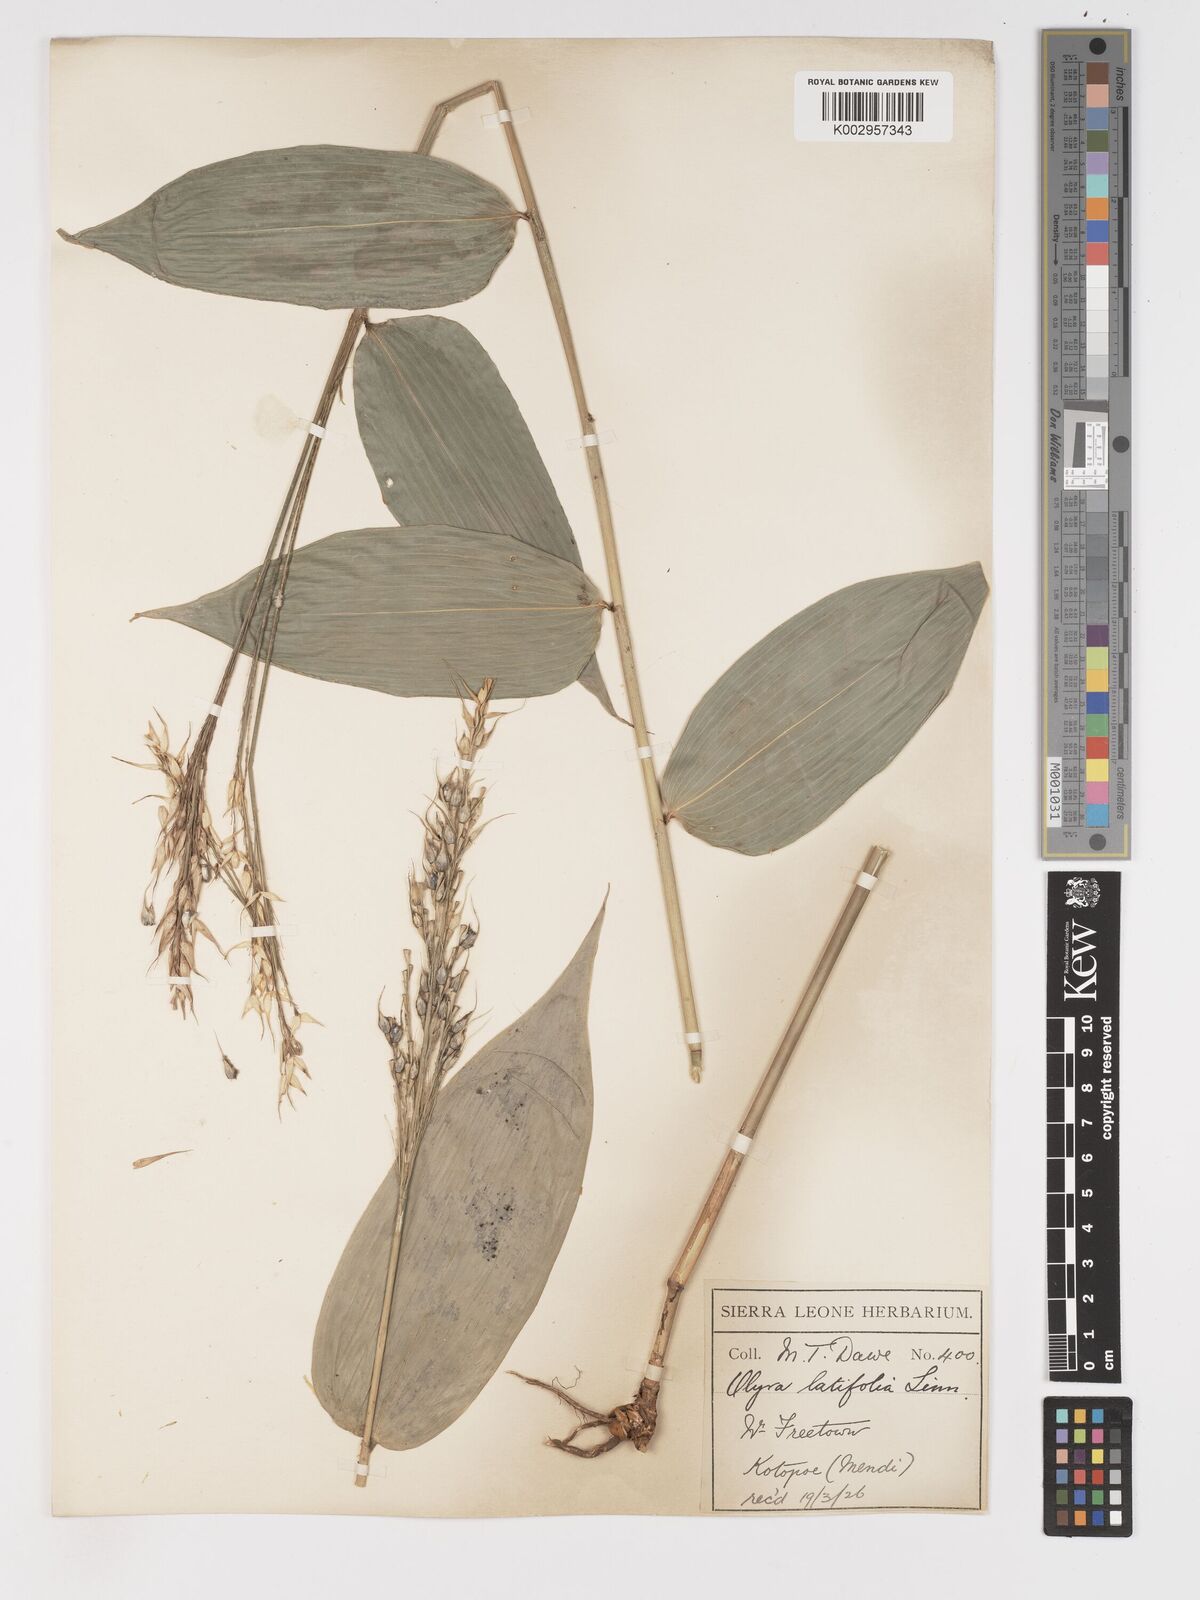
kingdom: Plantae
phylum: Tracheophyta
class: Liliopsida
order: Poales
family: Poaceae
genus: Olyra
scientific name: Olyra latifolia
